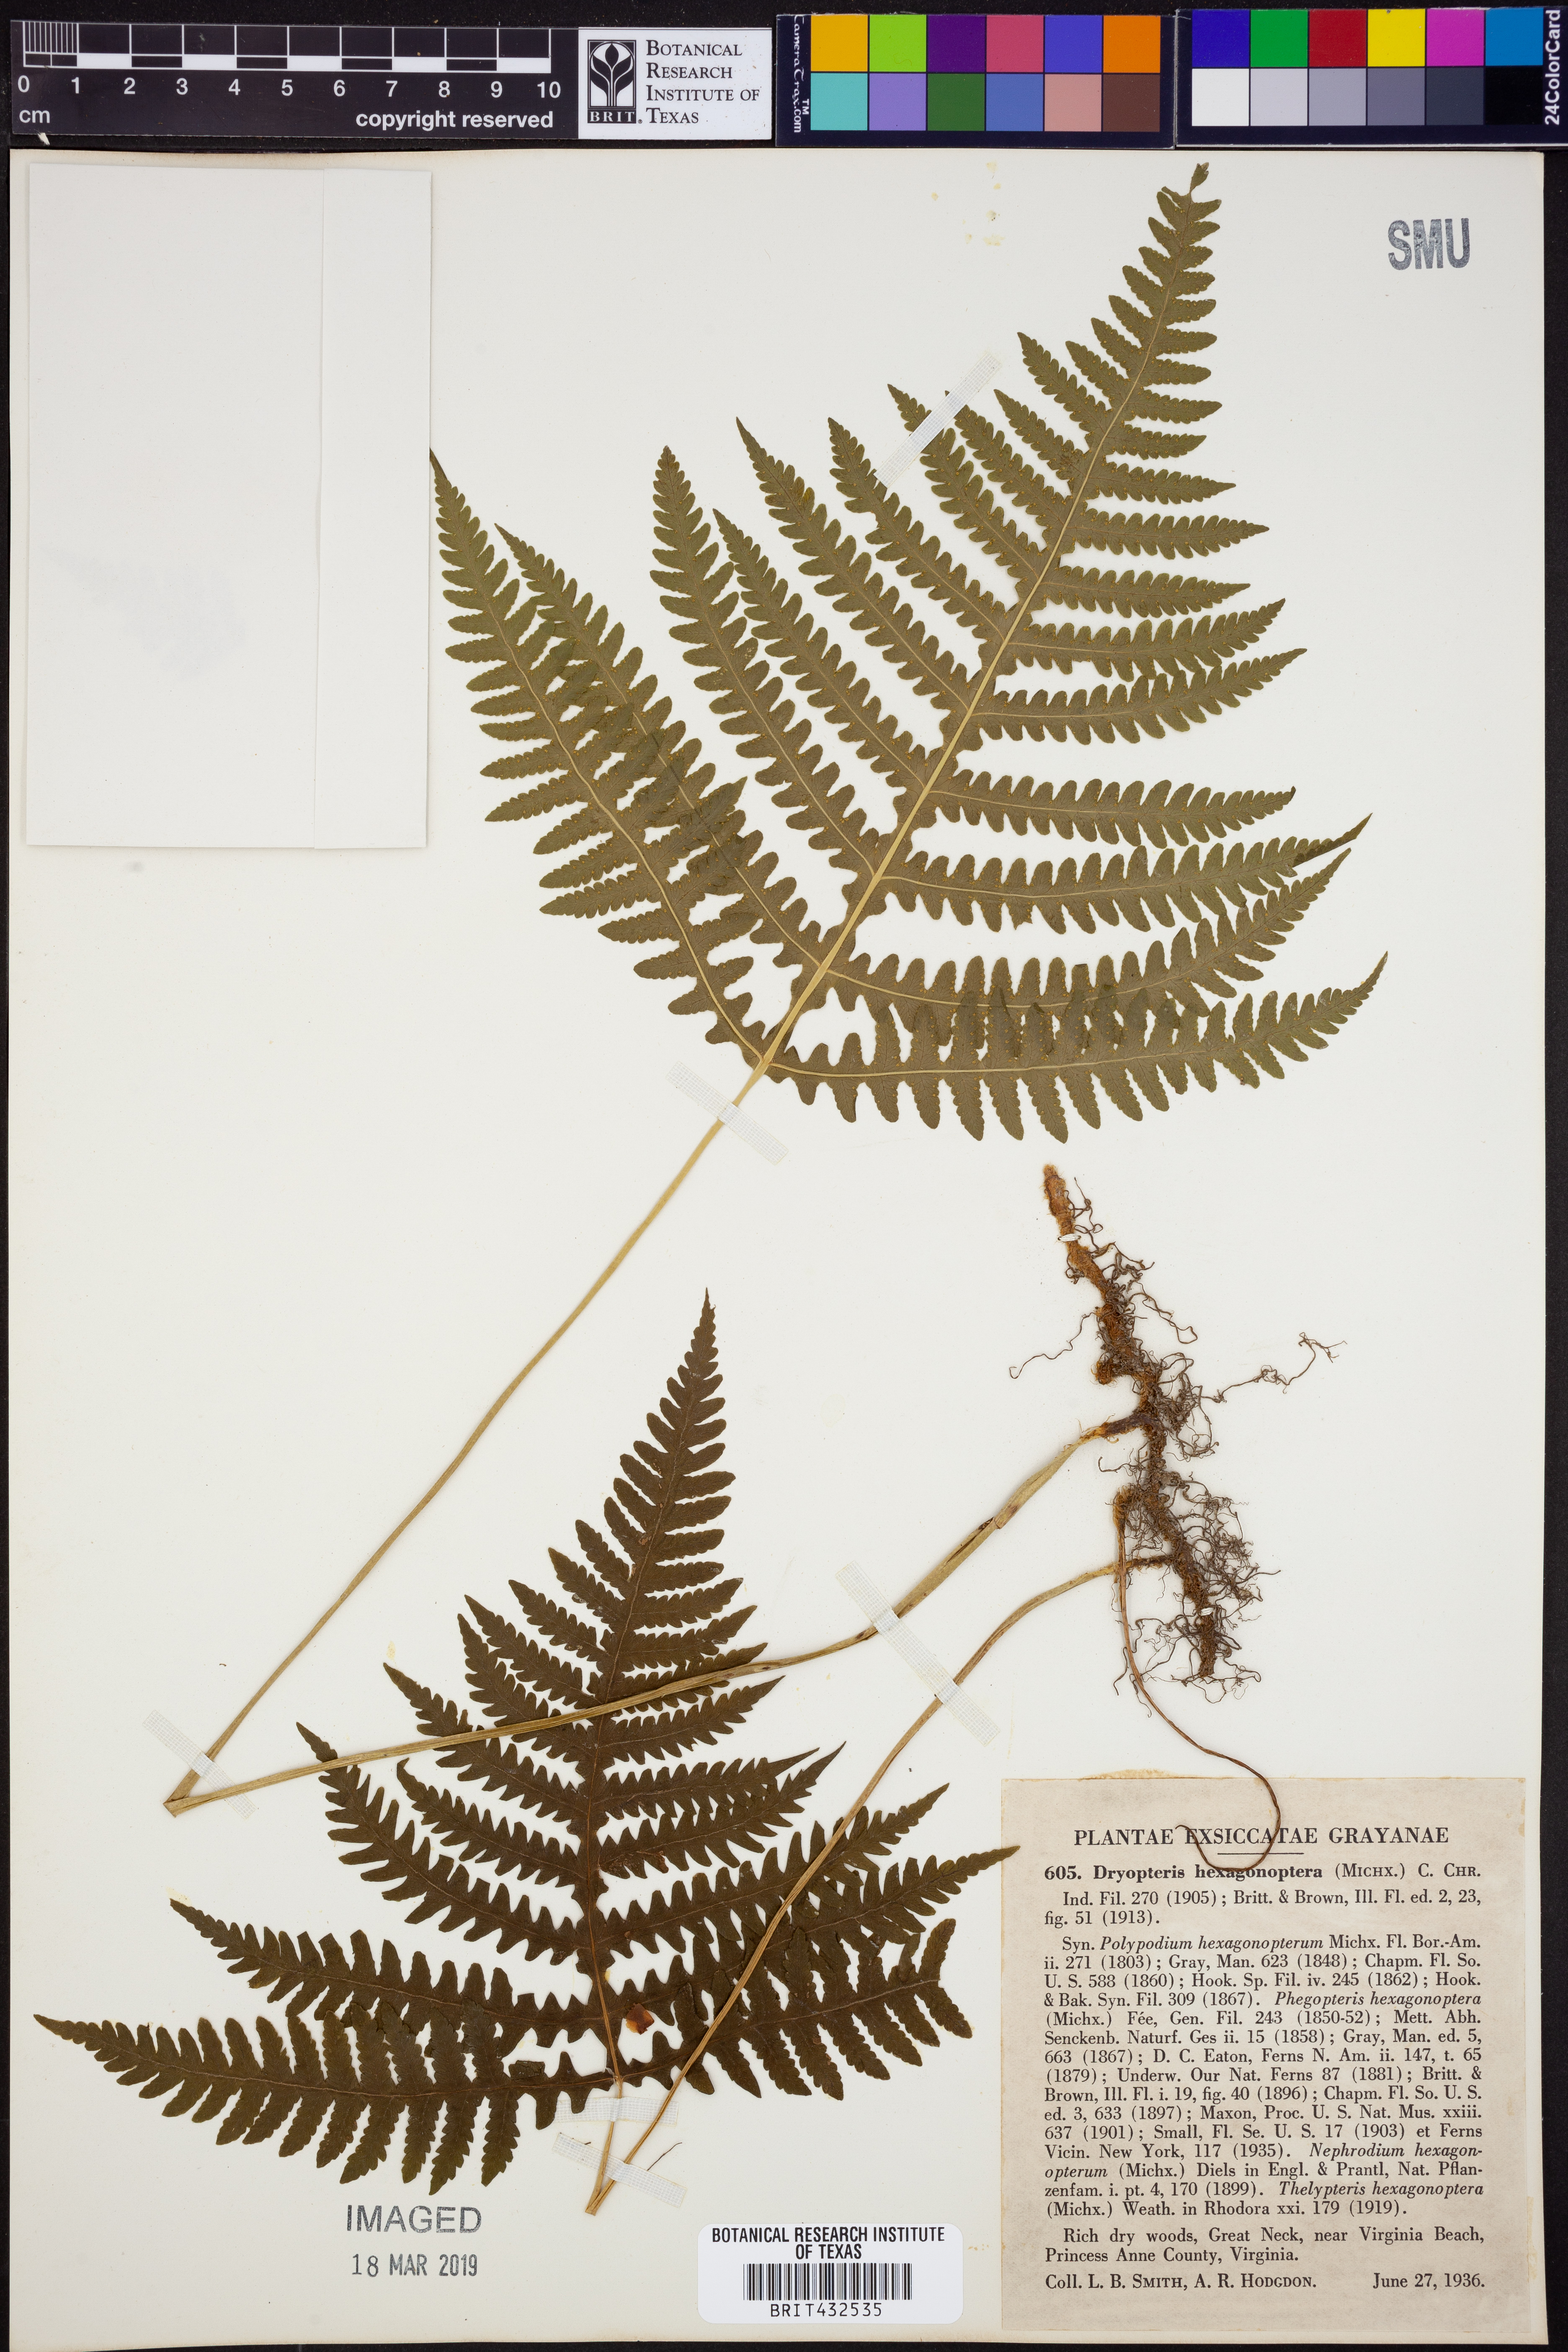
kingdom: Plantae
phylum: Tracheophyta
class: Polypodiopsida
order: Polypodiales
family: Dryopteridaceae
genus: Dryopteris
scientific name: Dryopteris hexagonaptera
